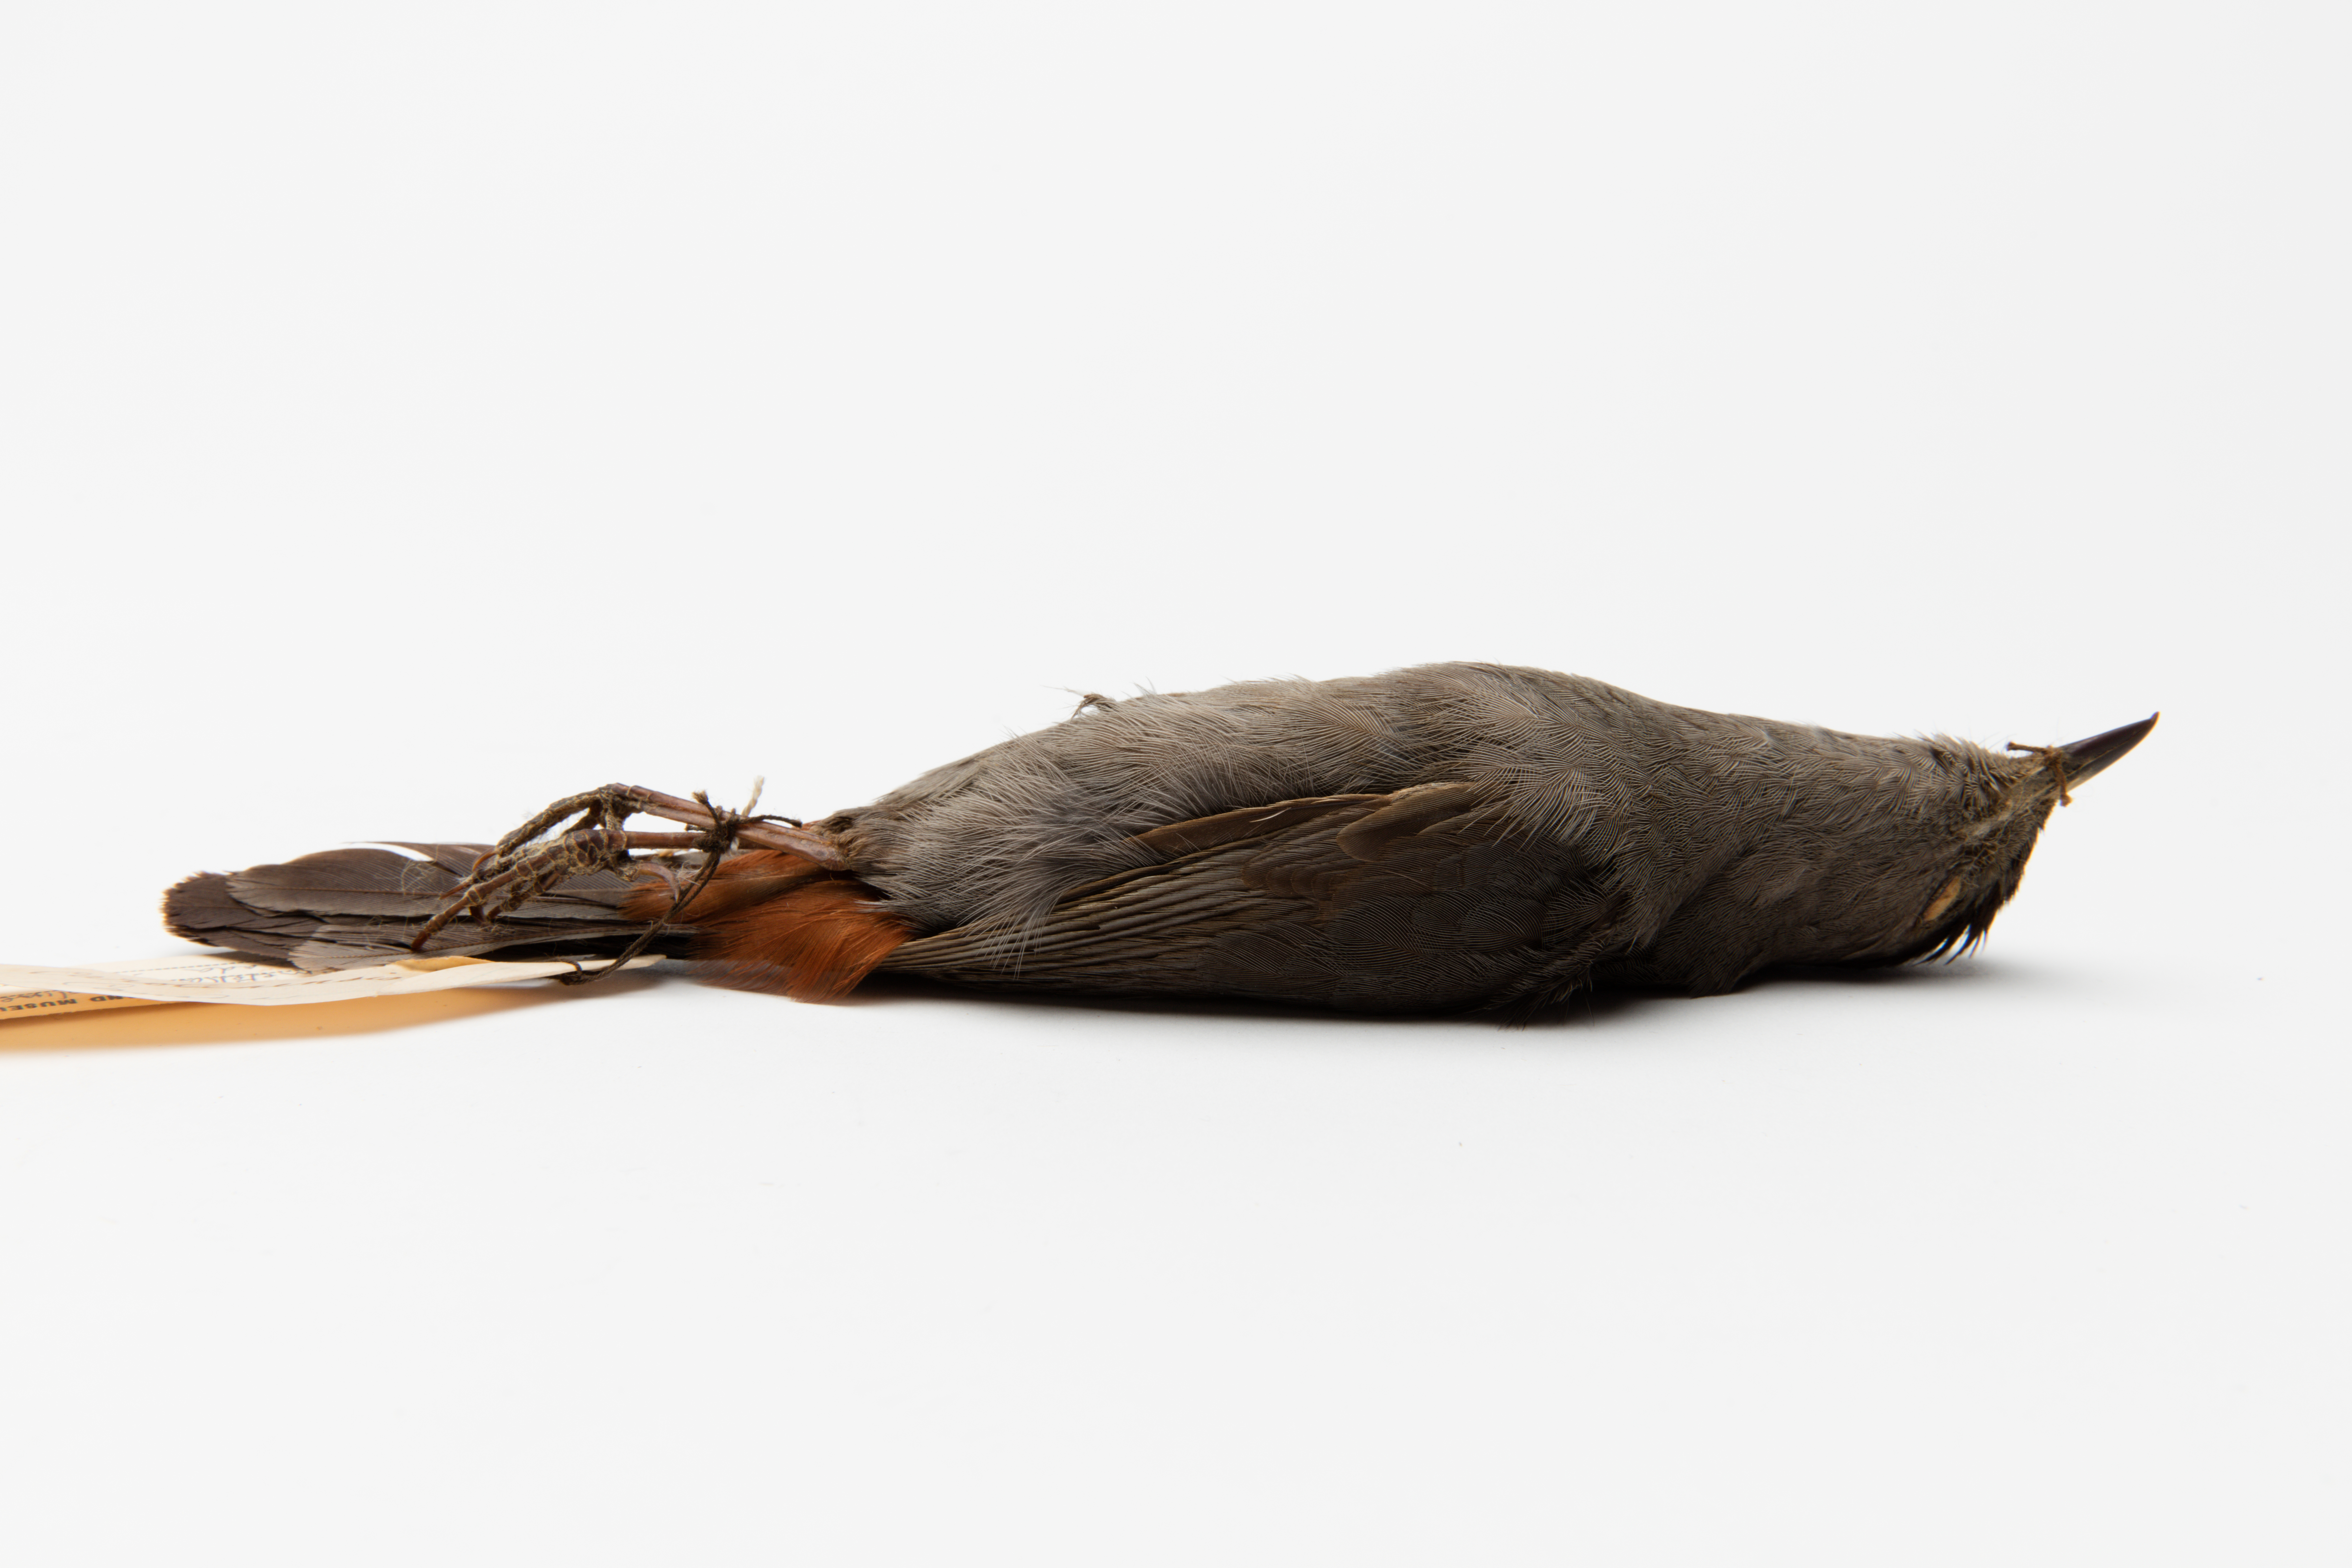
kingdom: Animalia
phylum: Chordata
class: Aves
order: Passeriformes
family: Mimidae
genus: Dumetella
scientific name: Dumetella carolinensis
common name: Gray catbird
